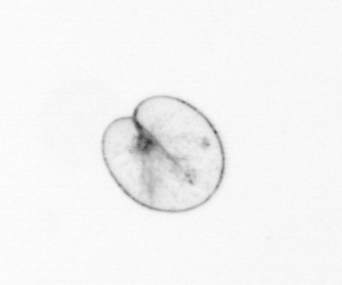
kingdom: Chromista
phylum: Myzozoa
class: Dinophyceae
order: Noctilucales
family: Noctilucaceae
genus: Noctiluca
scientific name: Noctiluca scintillans
